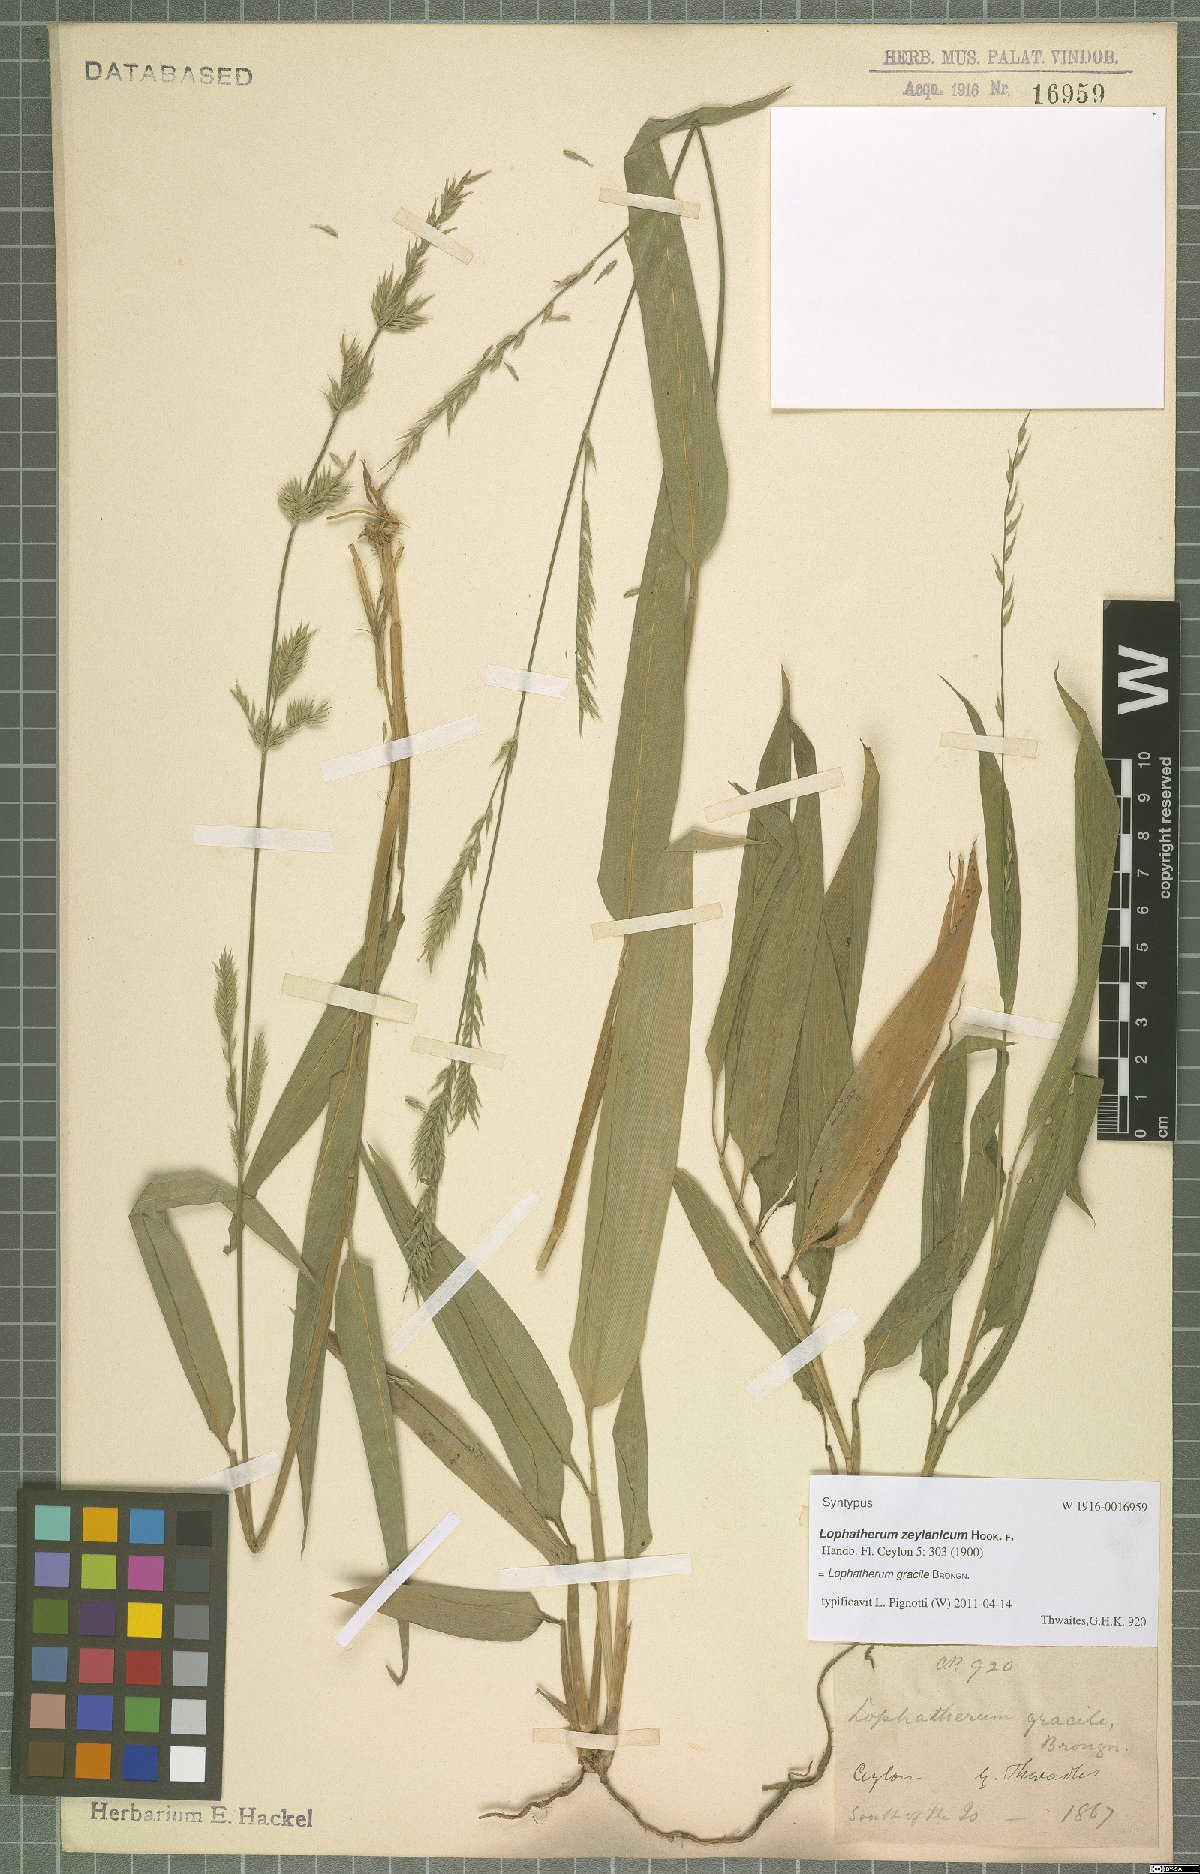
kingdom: Plantae
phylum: Tracheophyta
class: Liliopsida
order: Poales
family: Poaceae
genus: Lophatherum
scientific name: Lophatherum gracile
